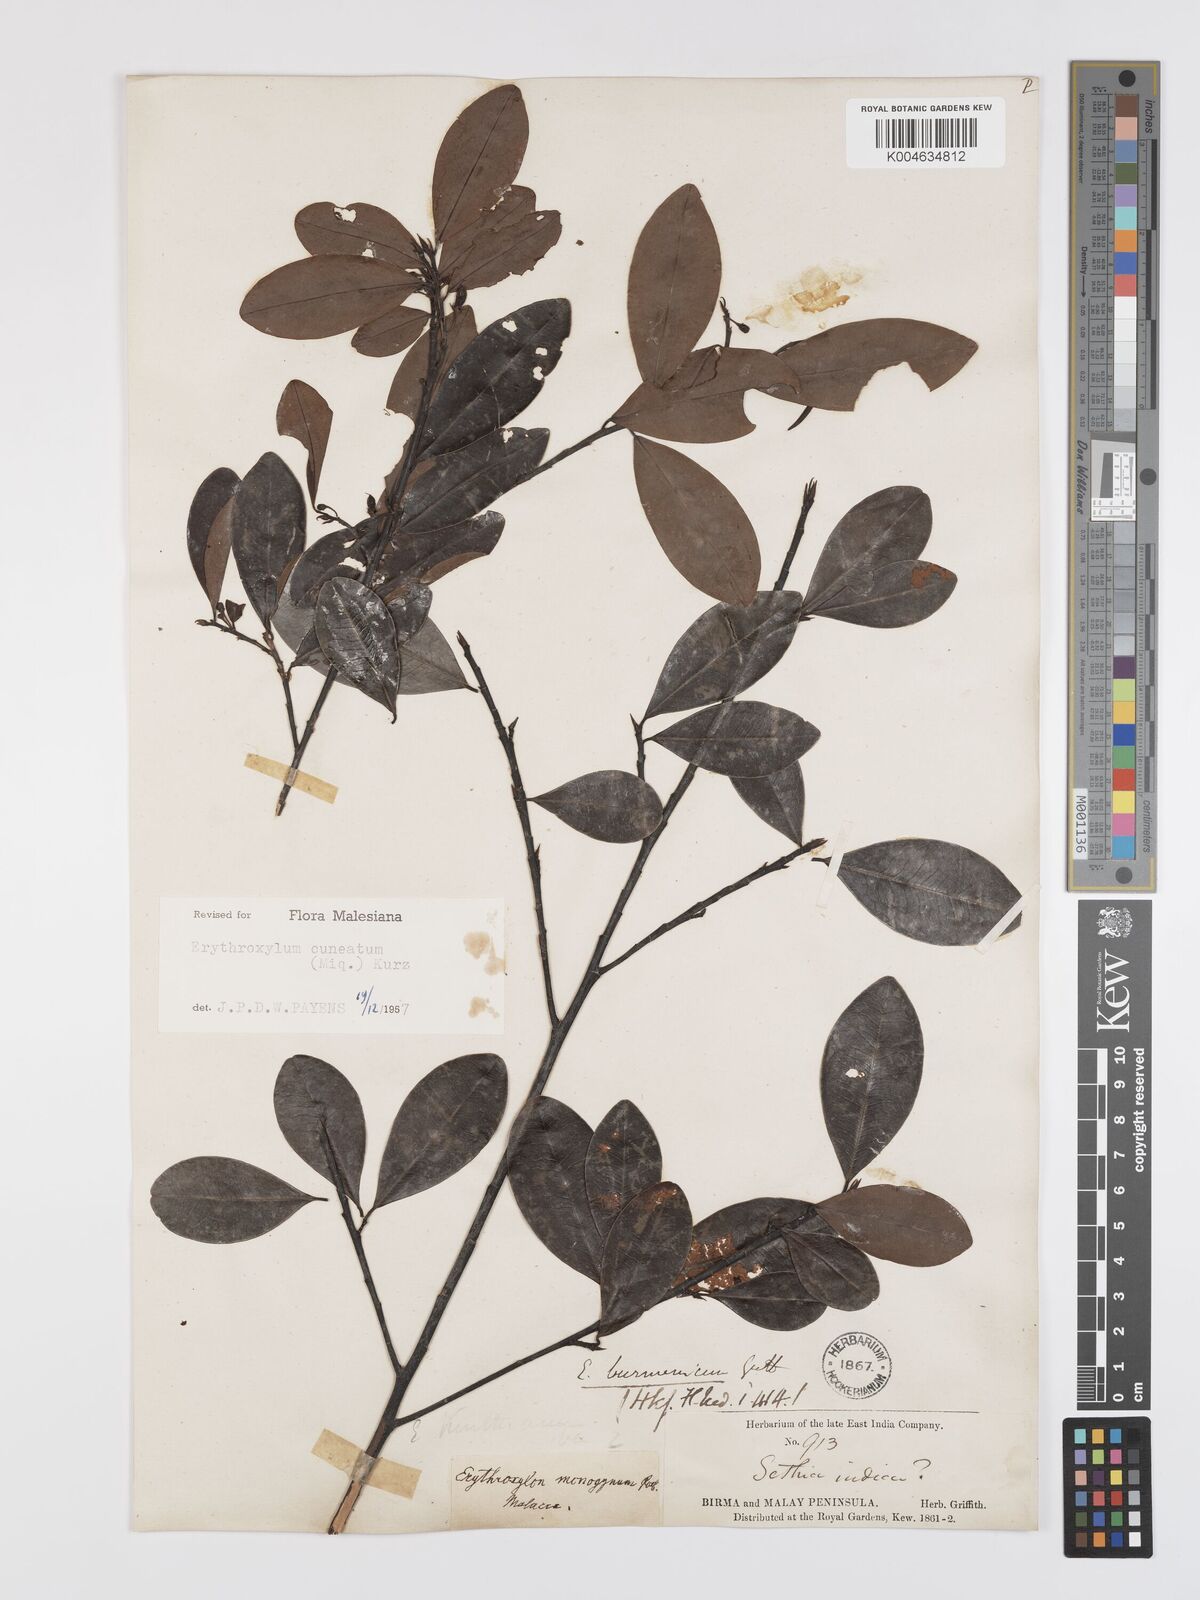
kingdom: Plantae
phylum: Tracheophyta
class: Magnoliopsida
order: Malpighiales
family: Erythroxylaceae
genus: Erythroxylum
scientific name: Erythroxylum cuneatum
